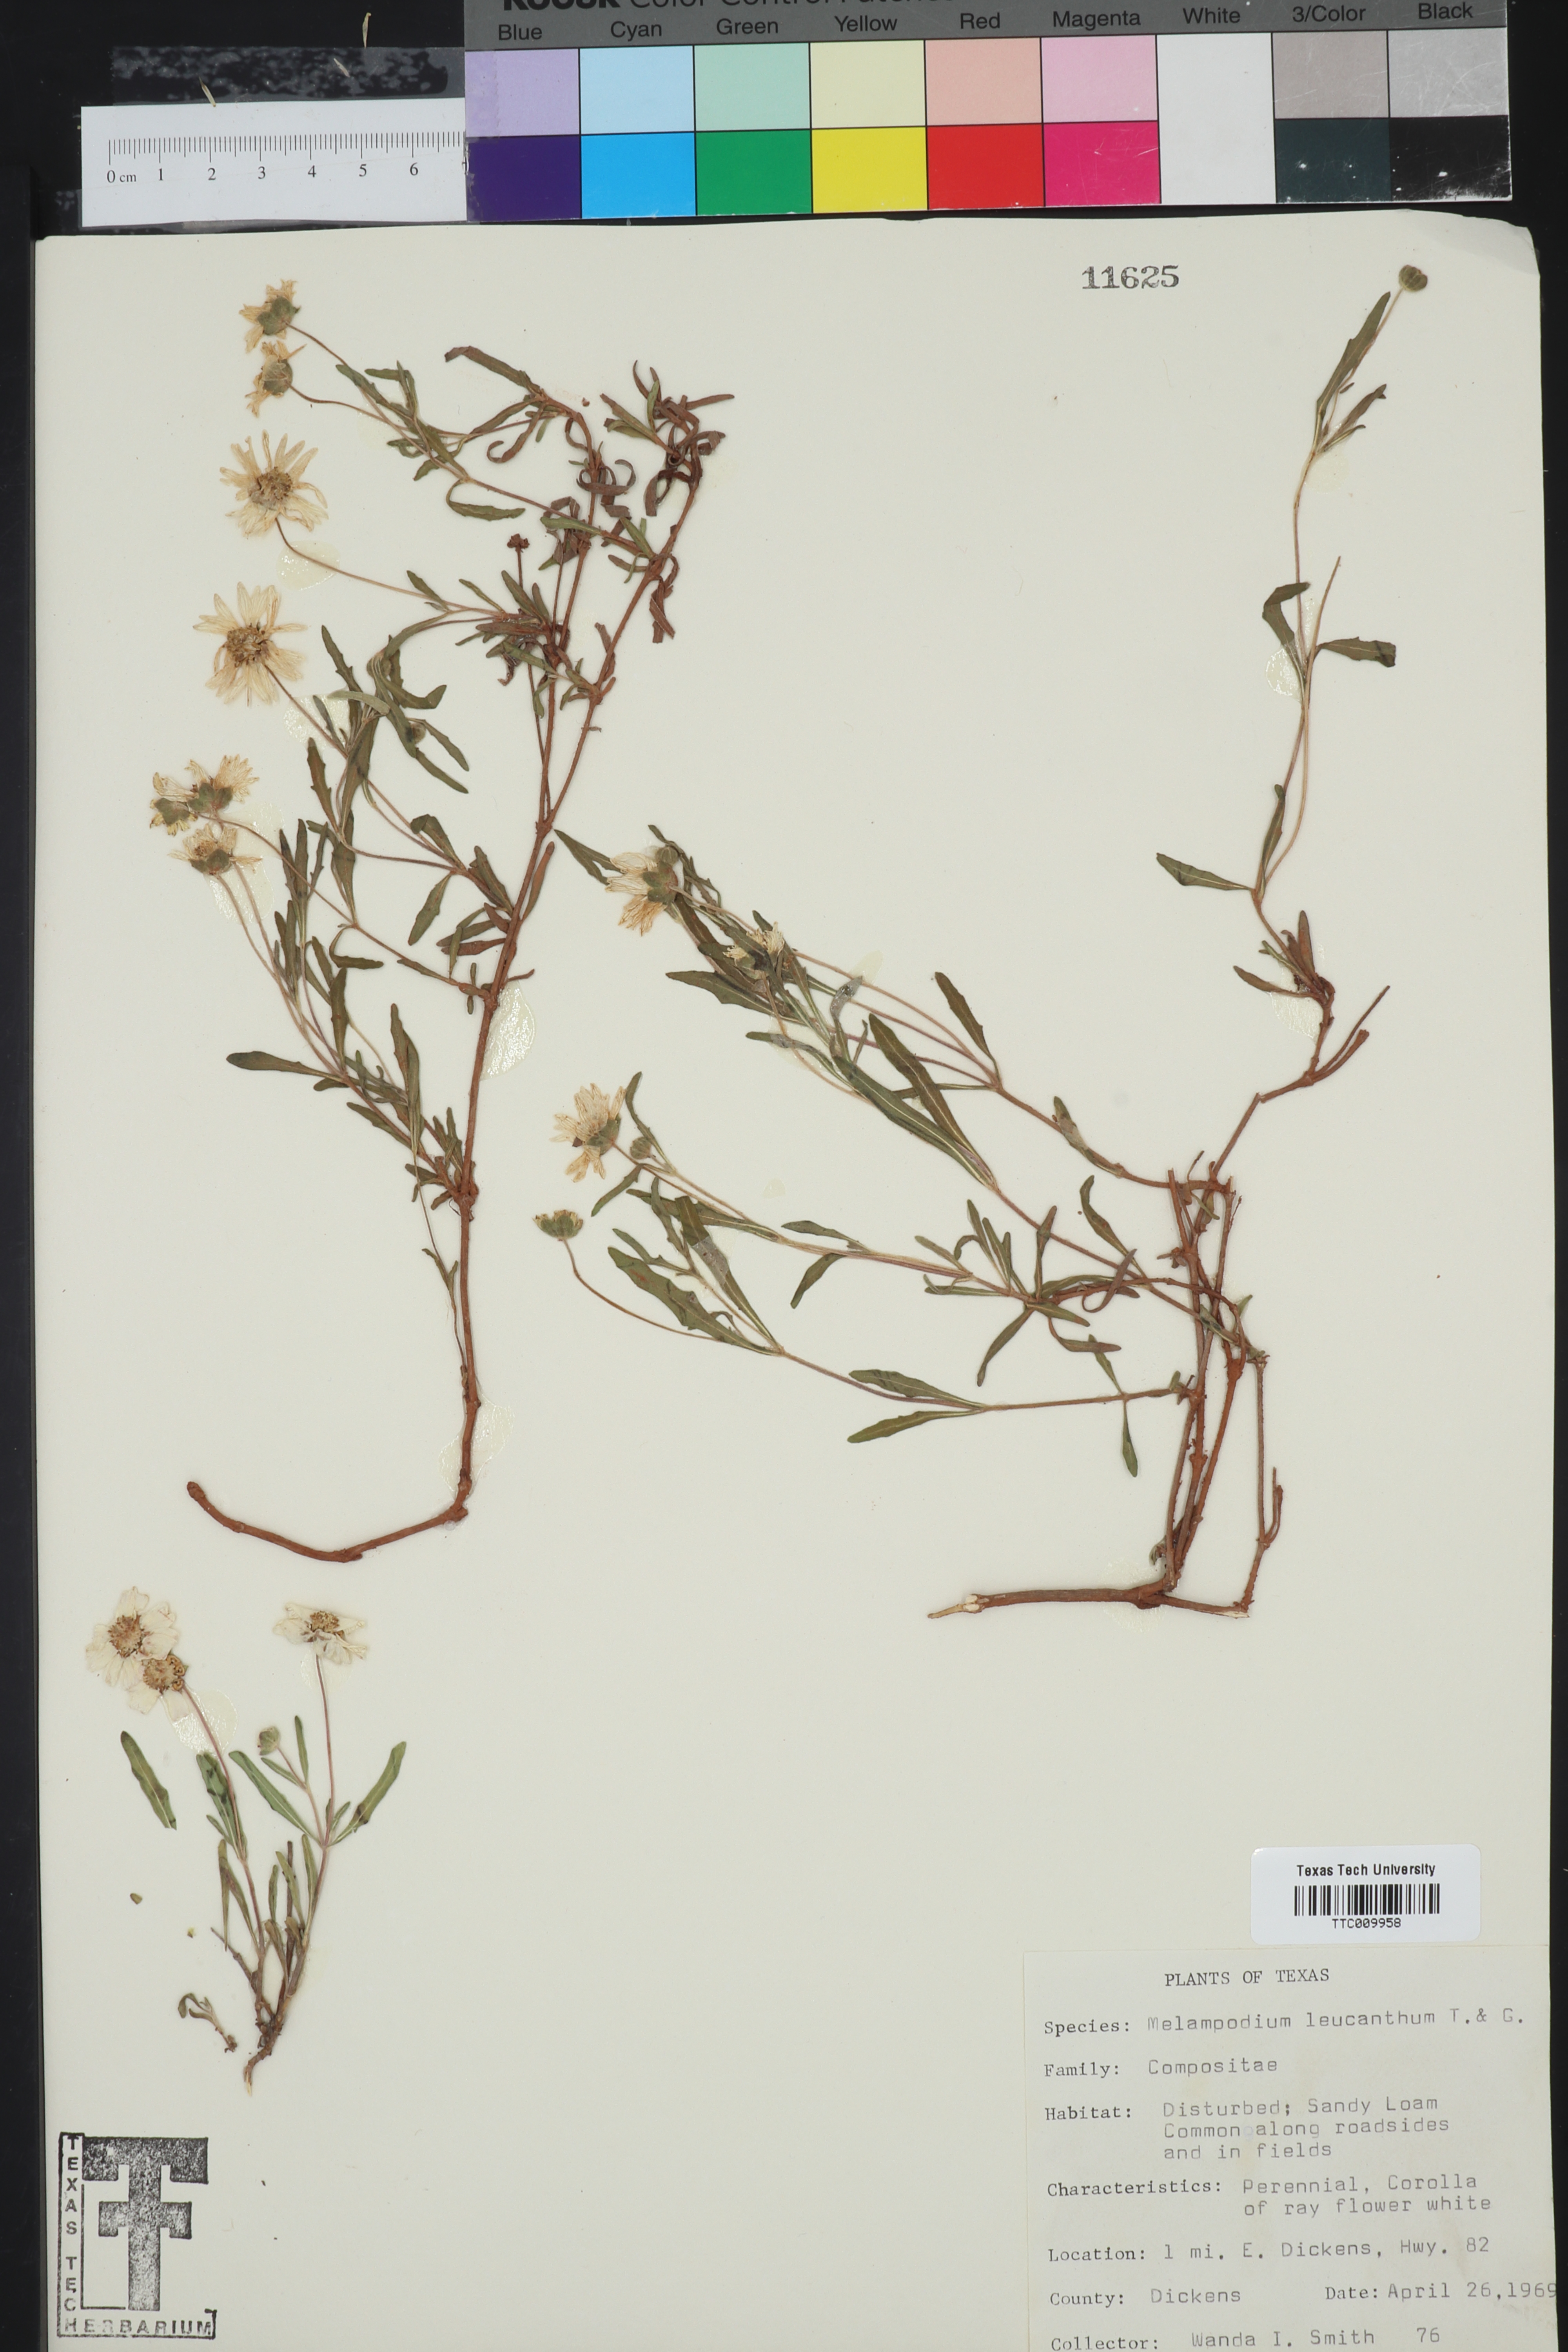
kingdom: Plantae
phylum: Tracheophyta
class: Magnoliopsida
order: Asterales
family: Asteraceae
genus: Melampodium
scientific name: Melampodium leucanthum
